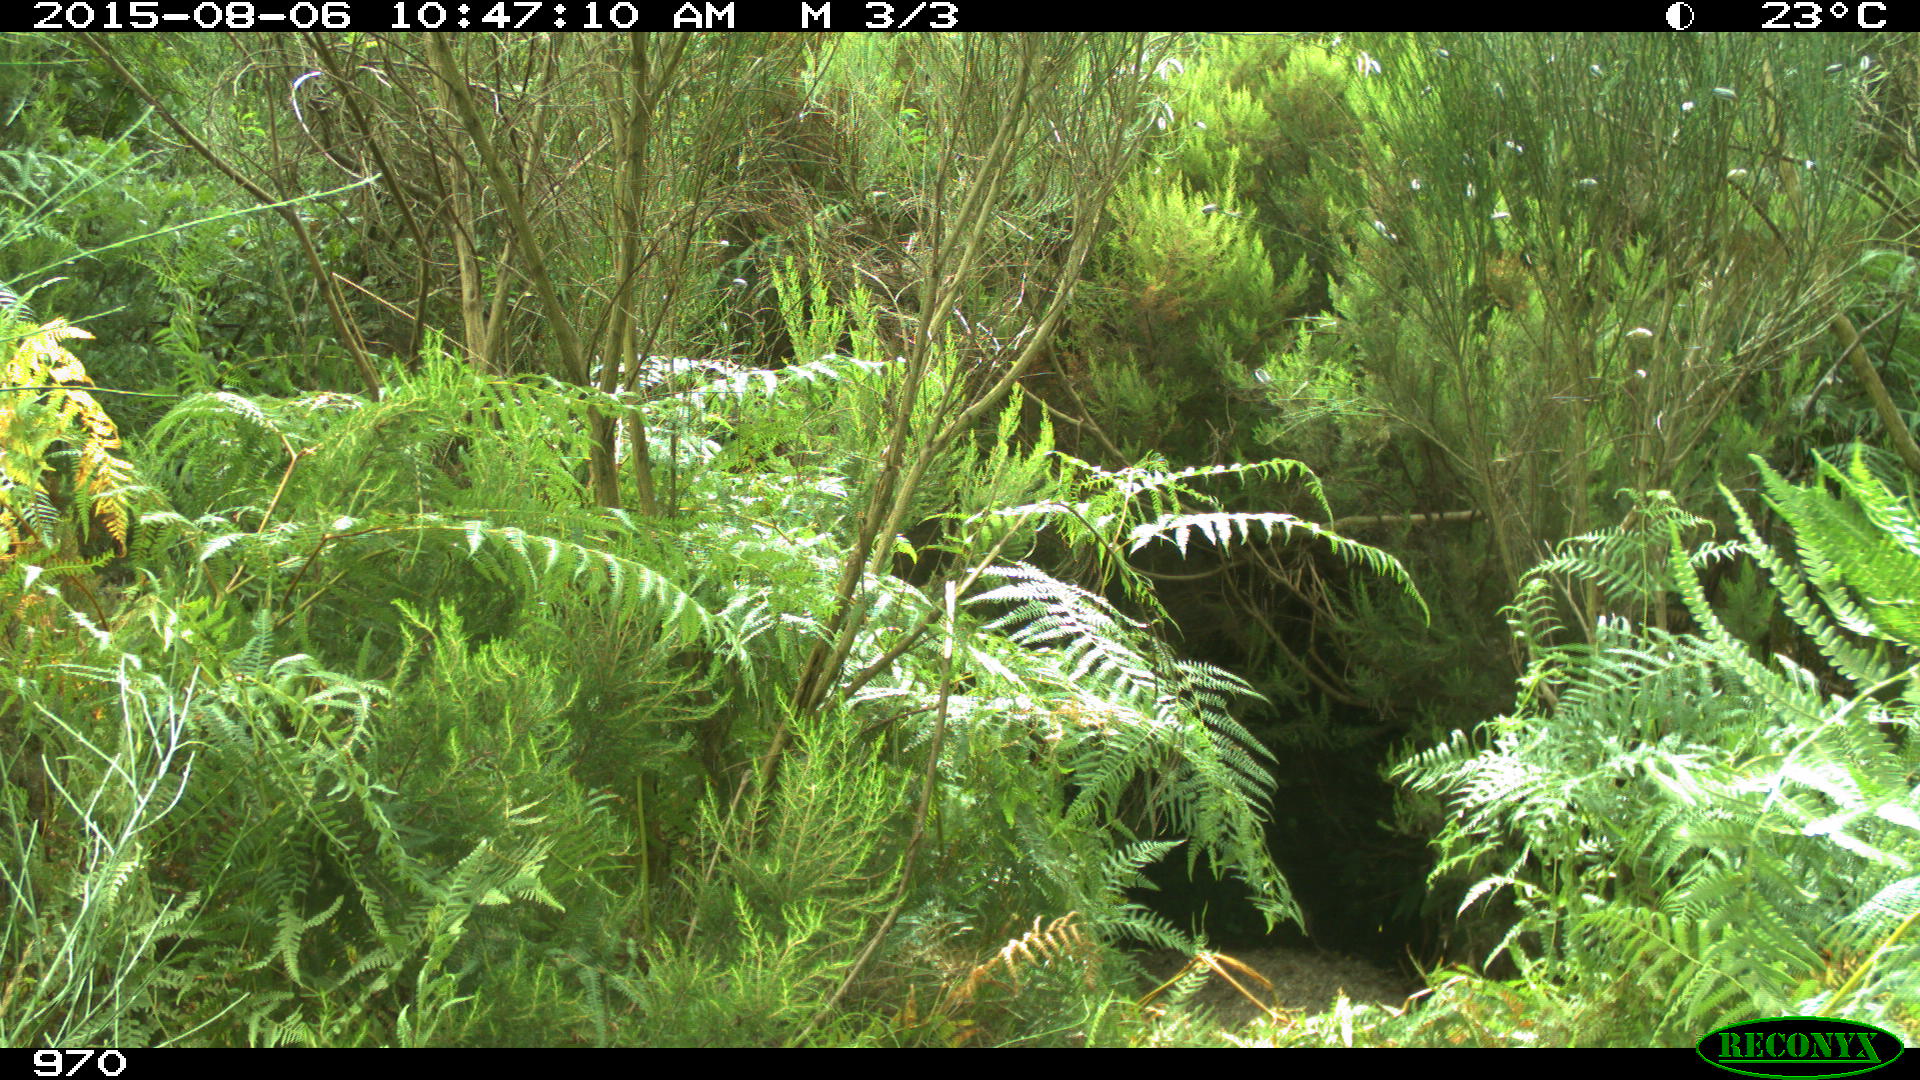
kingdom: Animalia
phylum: Chordata
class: Mammalia
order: Artiodactyla
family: Cervidae
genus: Capreolus
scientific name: Capreolus capreolus
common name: Western roe deer
